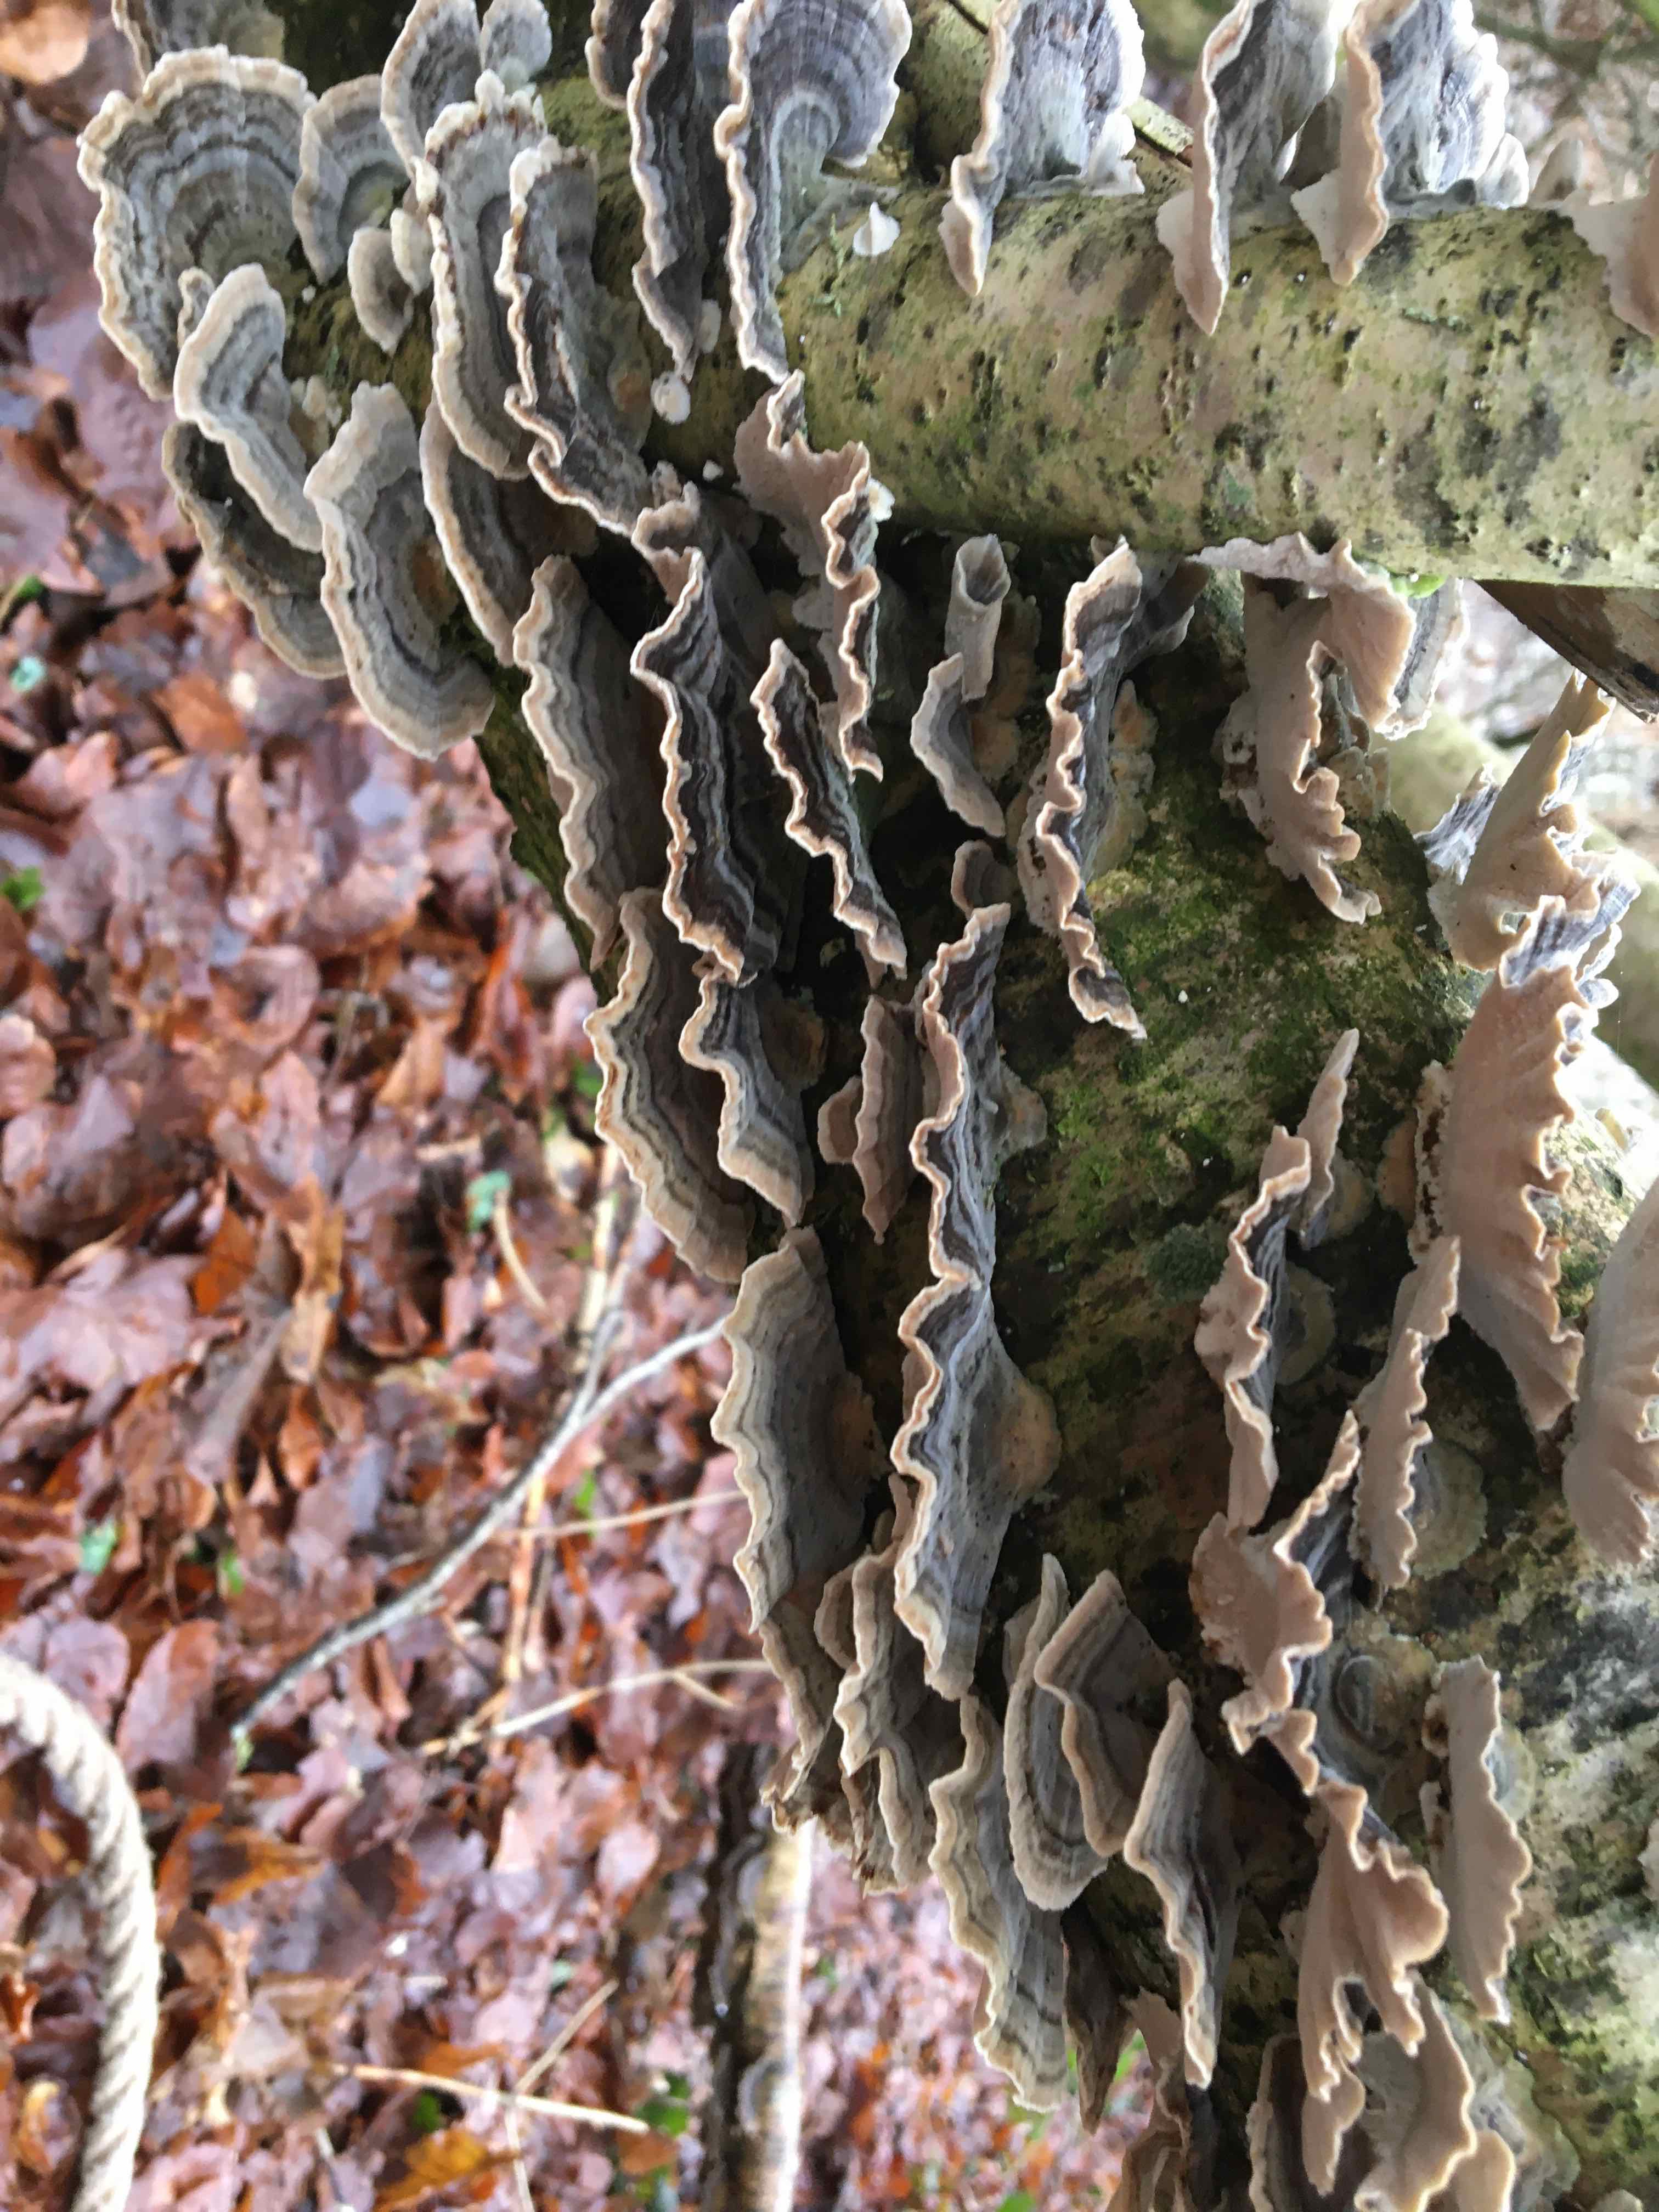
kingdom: Fungi
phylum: Basidiomycota
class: Agaricomycetes
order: Polyporales
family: Polyporaceae
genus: Trametes
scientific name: Trametes versicolor
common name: broget læderporesvamp
